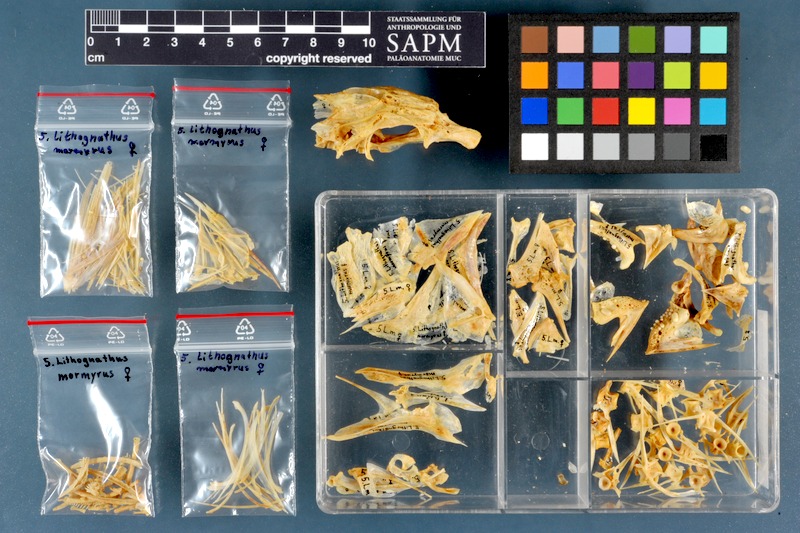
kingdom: Animalia
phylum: Chordata
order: Perciformes
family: Sparidae
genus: Lithognathus
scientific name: Lithognathus mormyrus
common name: Sand steenbras
